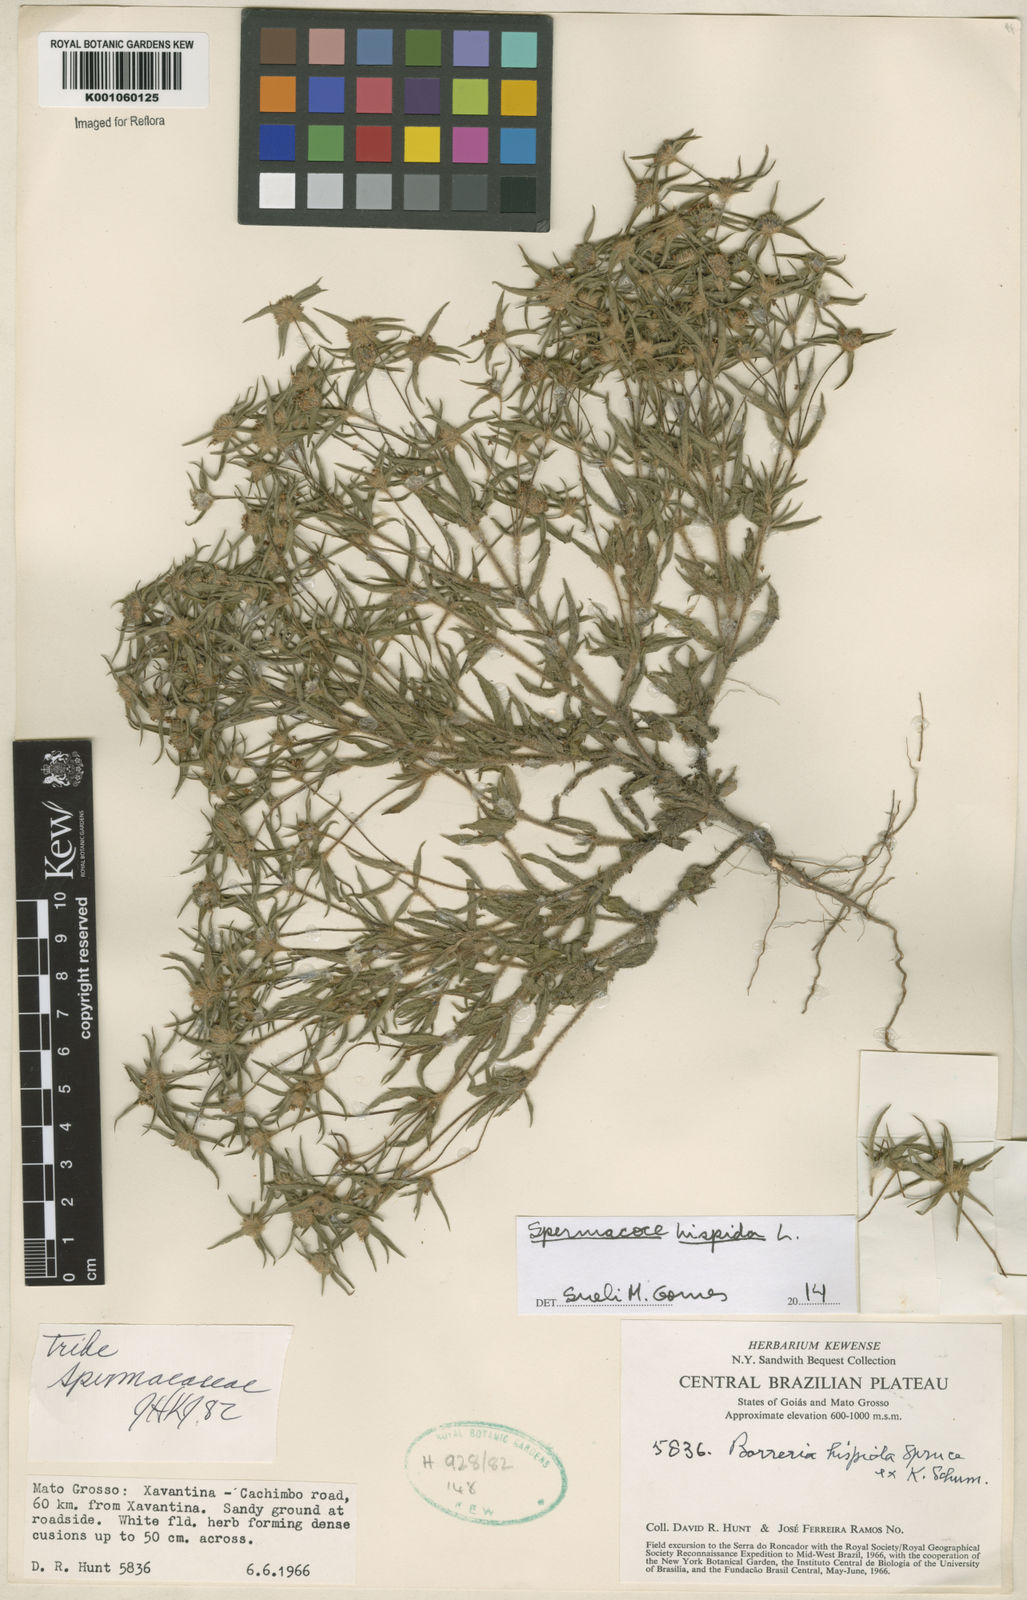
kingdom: Plantae
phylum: Tracheophyta
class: Magnoliopsida
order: Gentianales
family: Rubiaceae
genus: Spermacoce
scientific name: Spermacoce hispida
